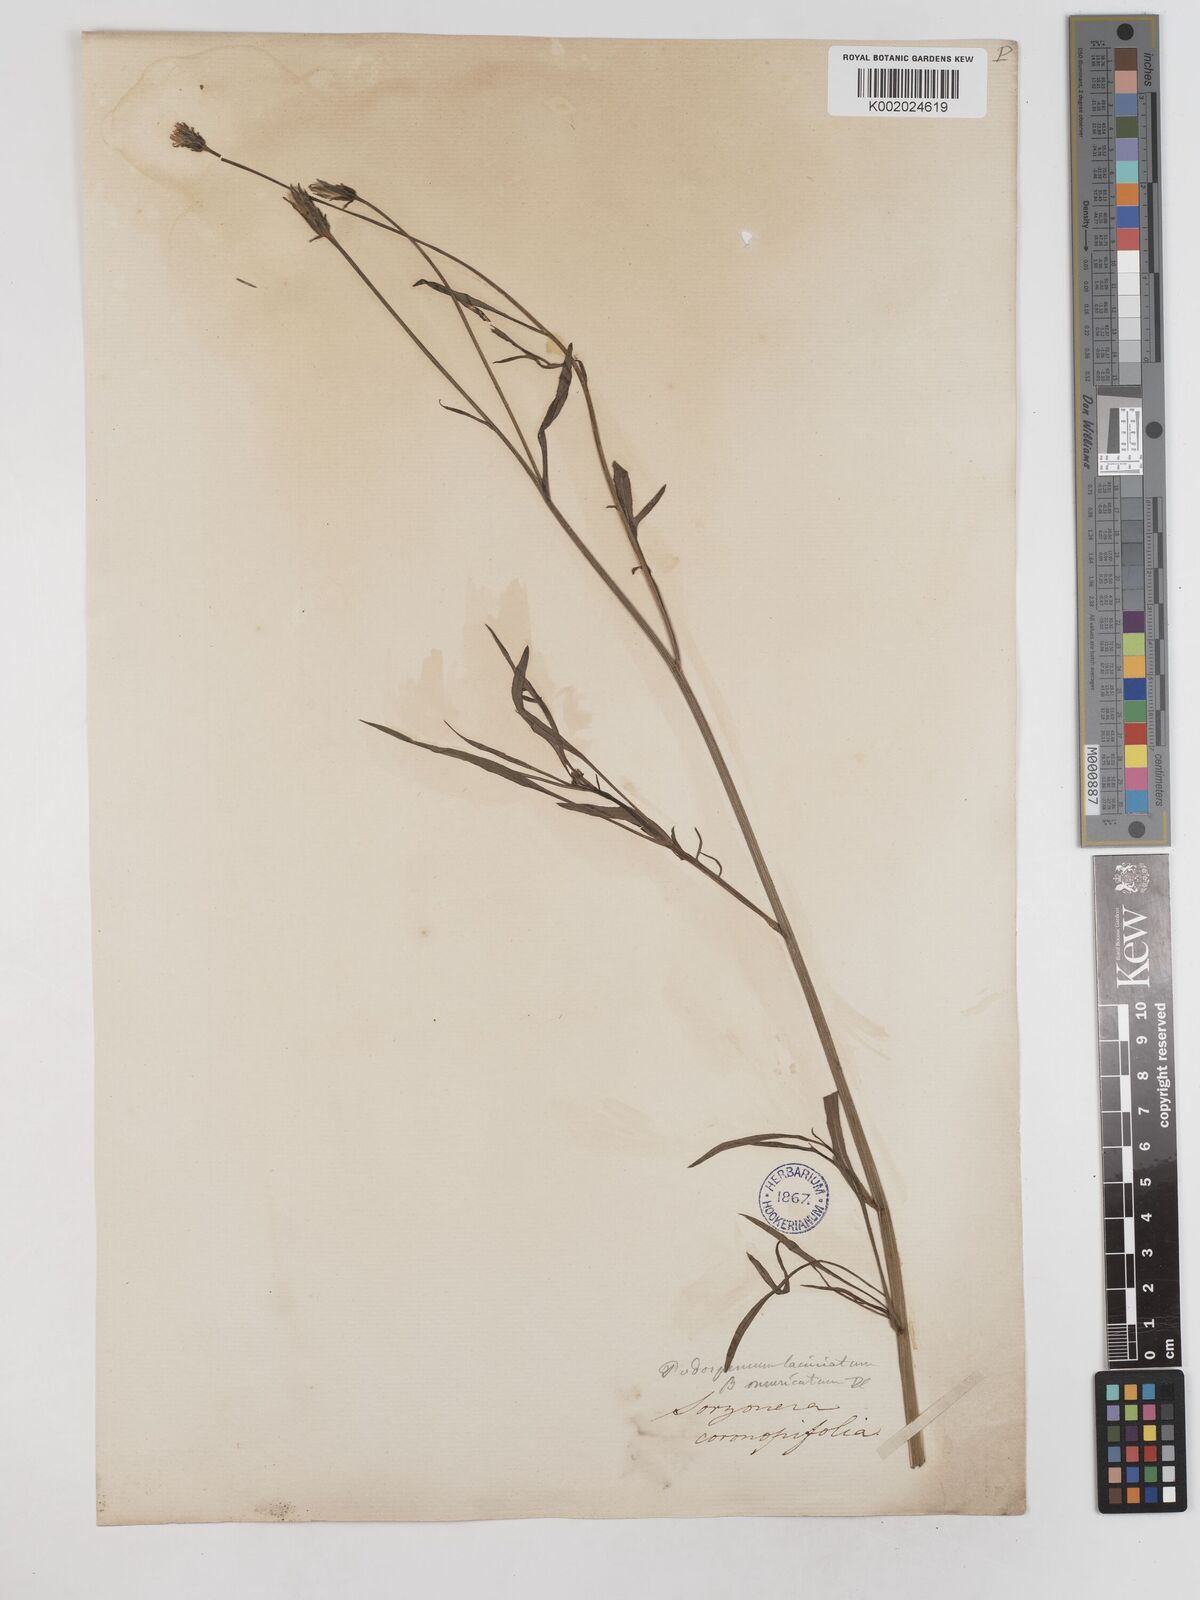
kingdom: Plantae
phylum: Tracheophyta
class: Magnoliopsida
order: Asterales
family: Asteraceae
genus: Scorzonera
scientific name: Scorzonera laciniata
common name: Cutleaf vipergrass
